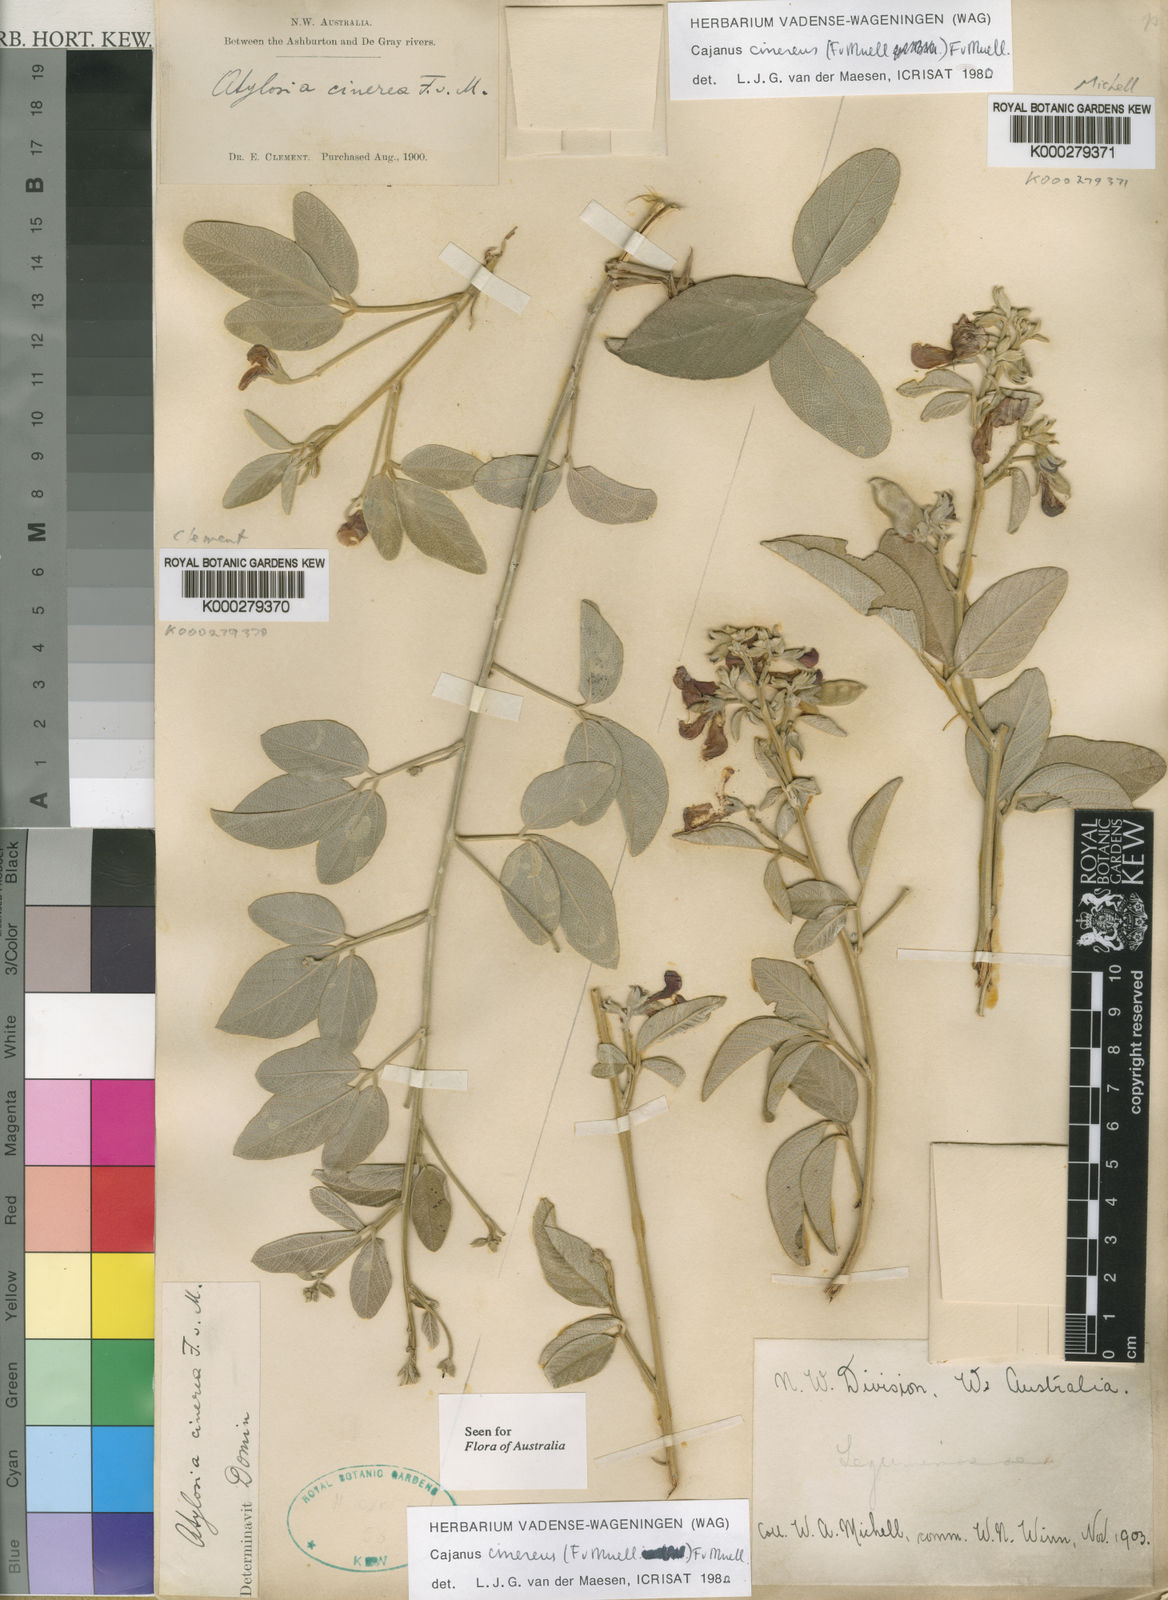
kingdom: Plantae
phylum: Tracheophyta
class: Magnoliopsida
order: Fabales
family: Fabaceae
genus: Cajanus
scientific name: Cajanus cinereus
